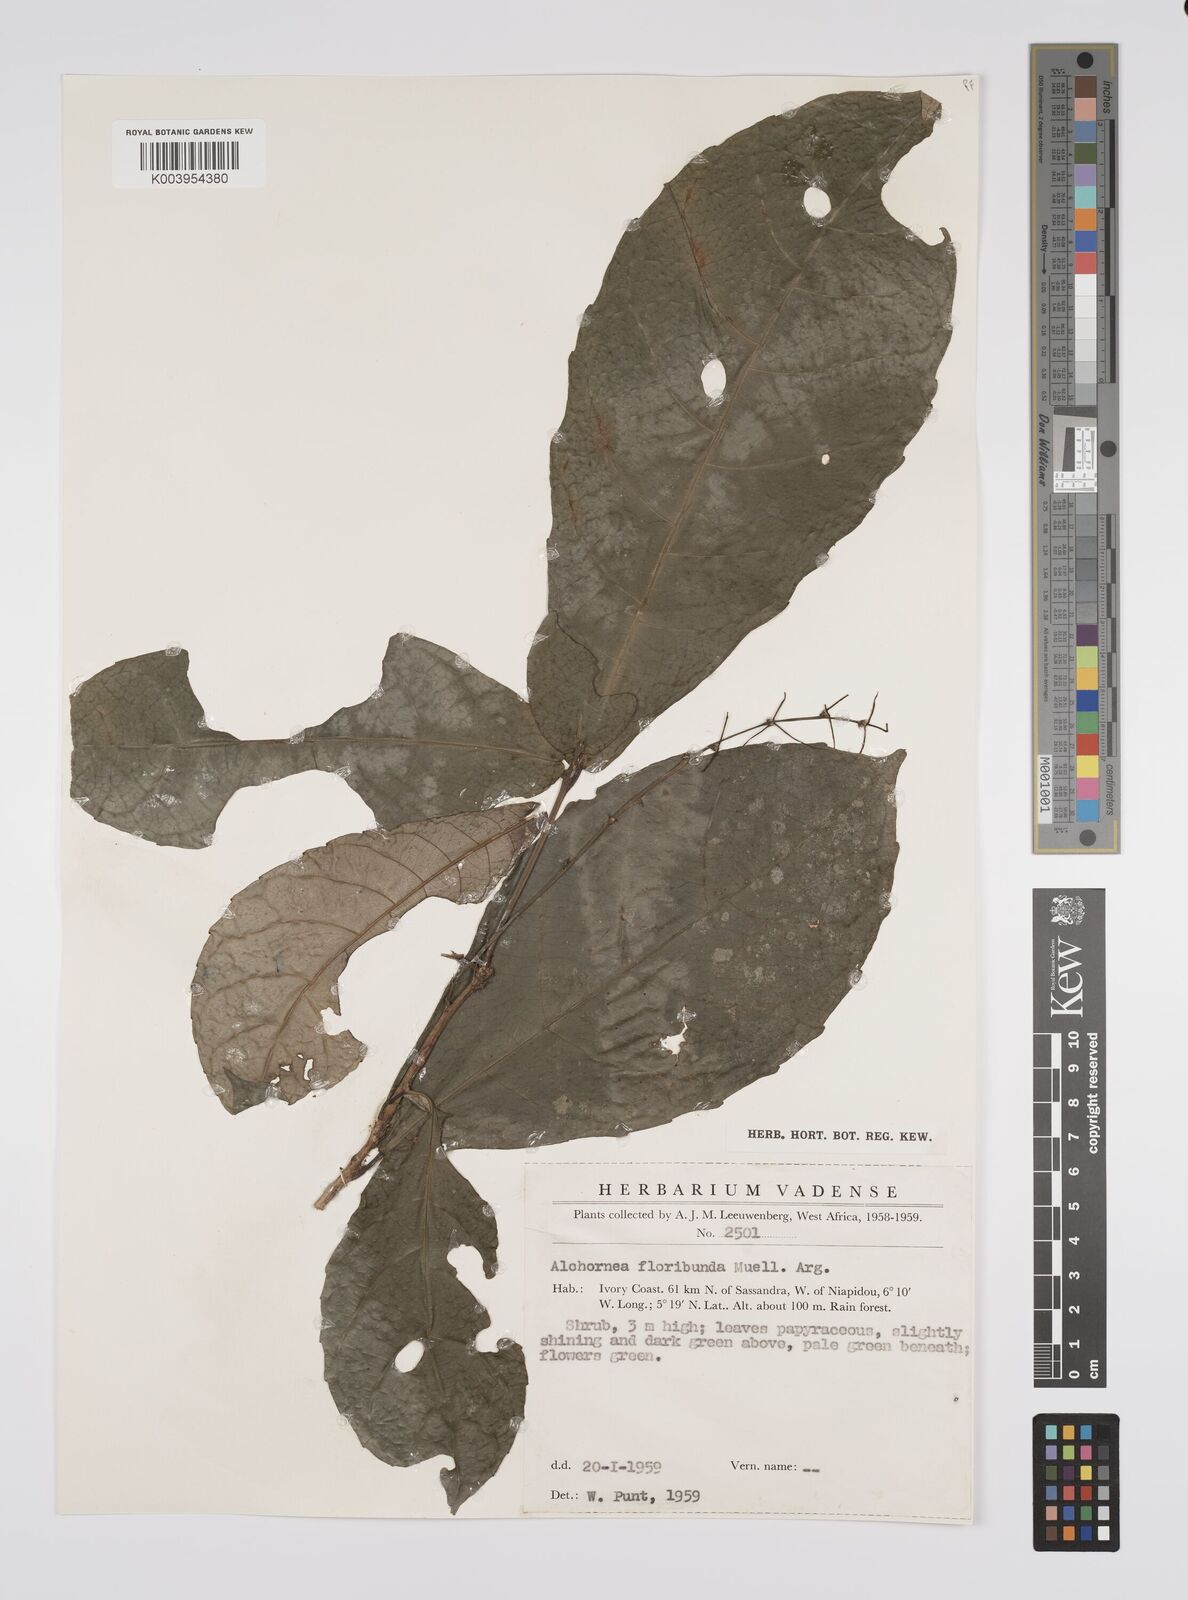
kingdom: Plantae
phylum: Tracheophyta
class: Magnoliopsida
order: Malpighiales
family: Euphorbiaceae
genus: Alchornea
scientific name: Alchornea floribunda
